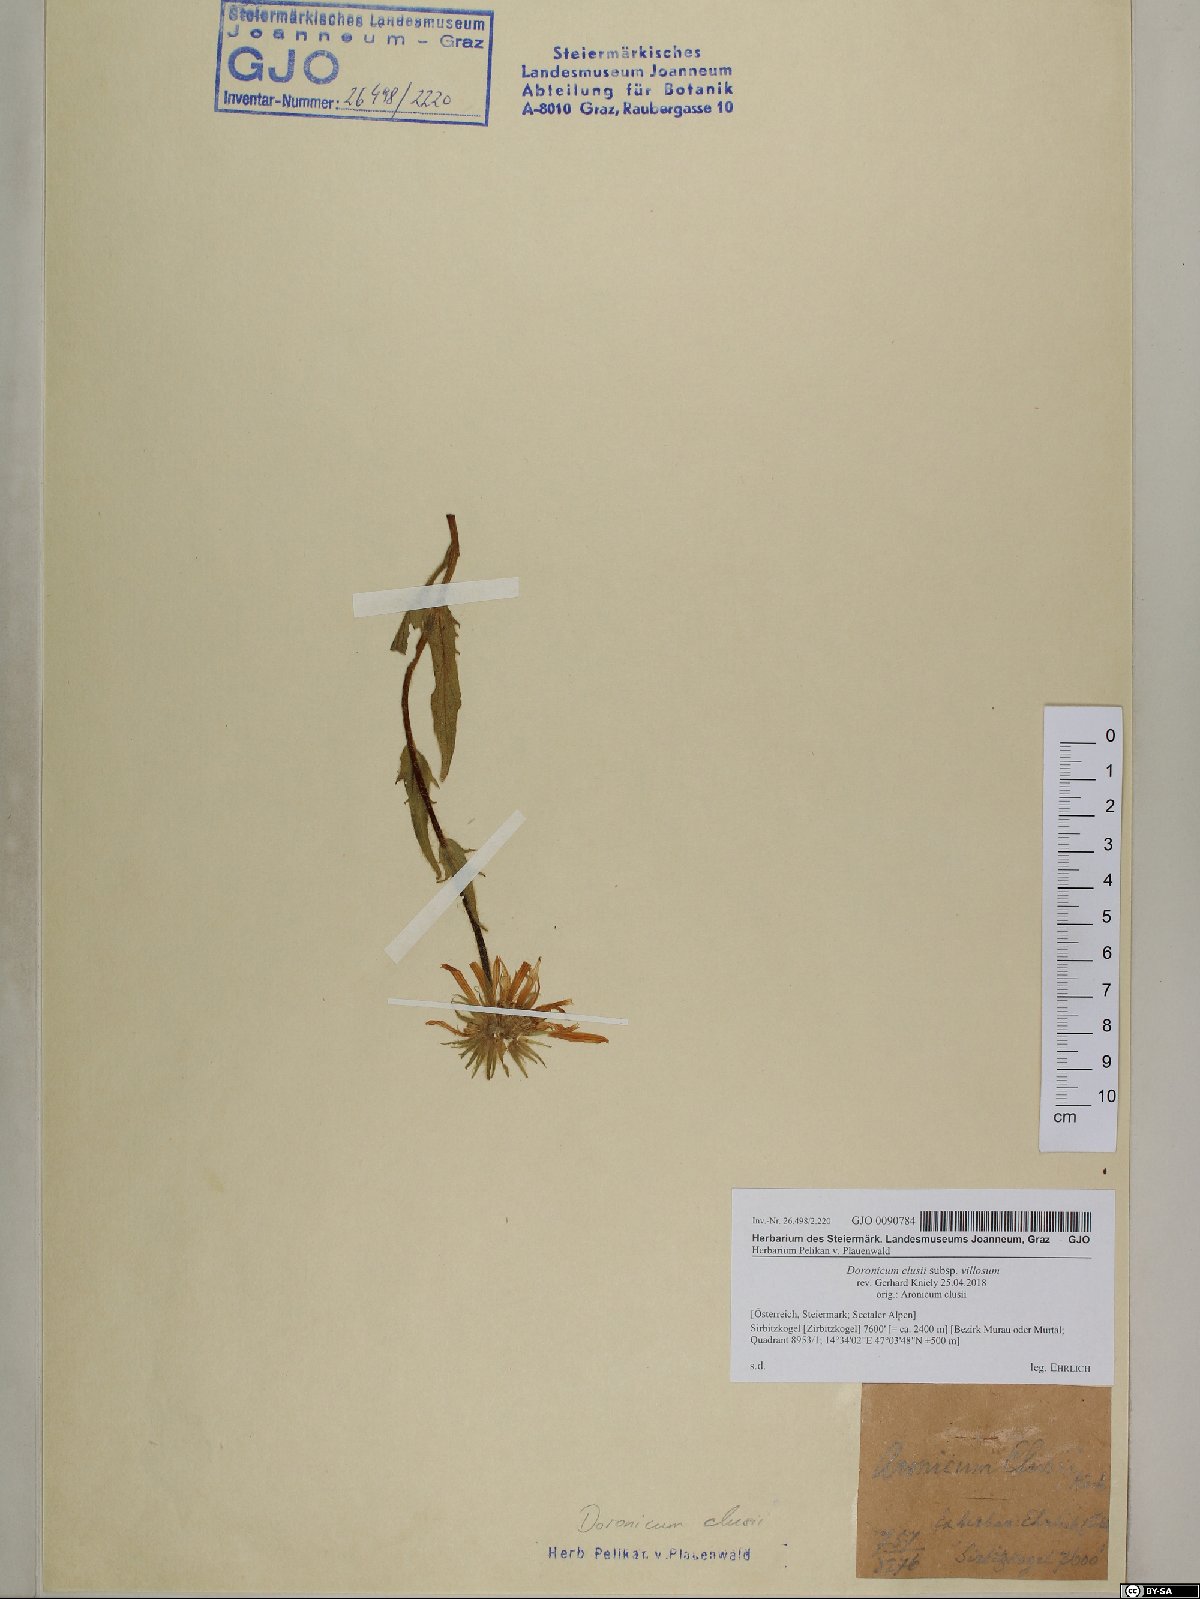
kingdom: Plantae
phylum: Tracheophyta
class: Magnoliopsida
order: Asterales
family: Asteraceae
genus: Doronicum
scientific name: Doronicum clusii
